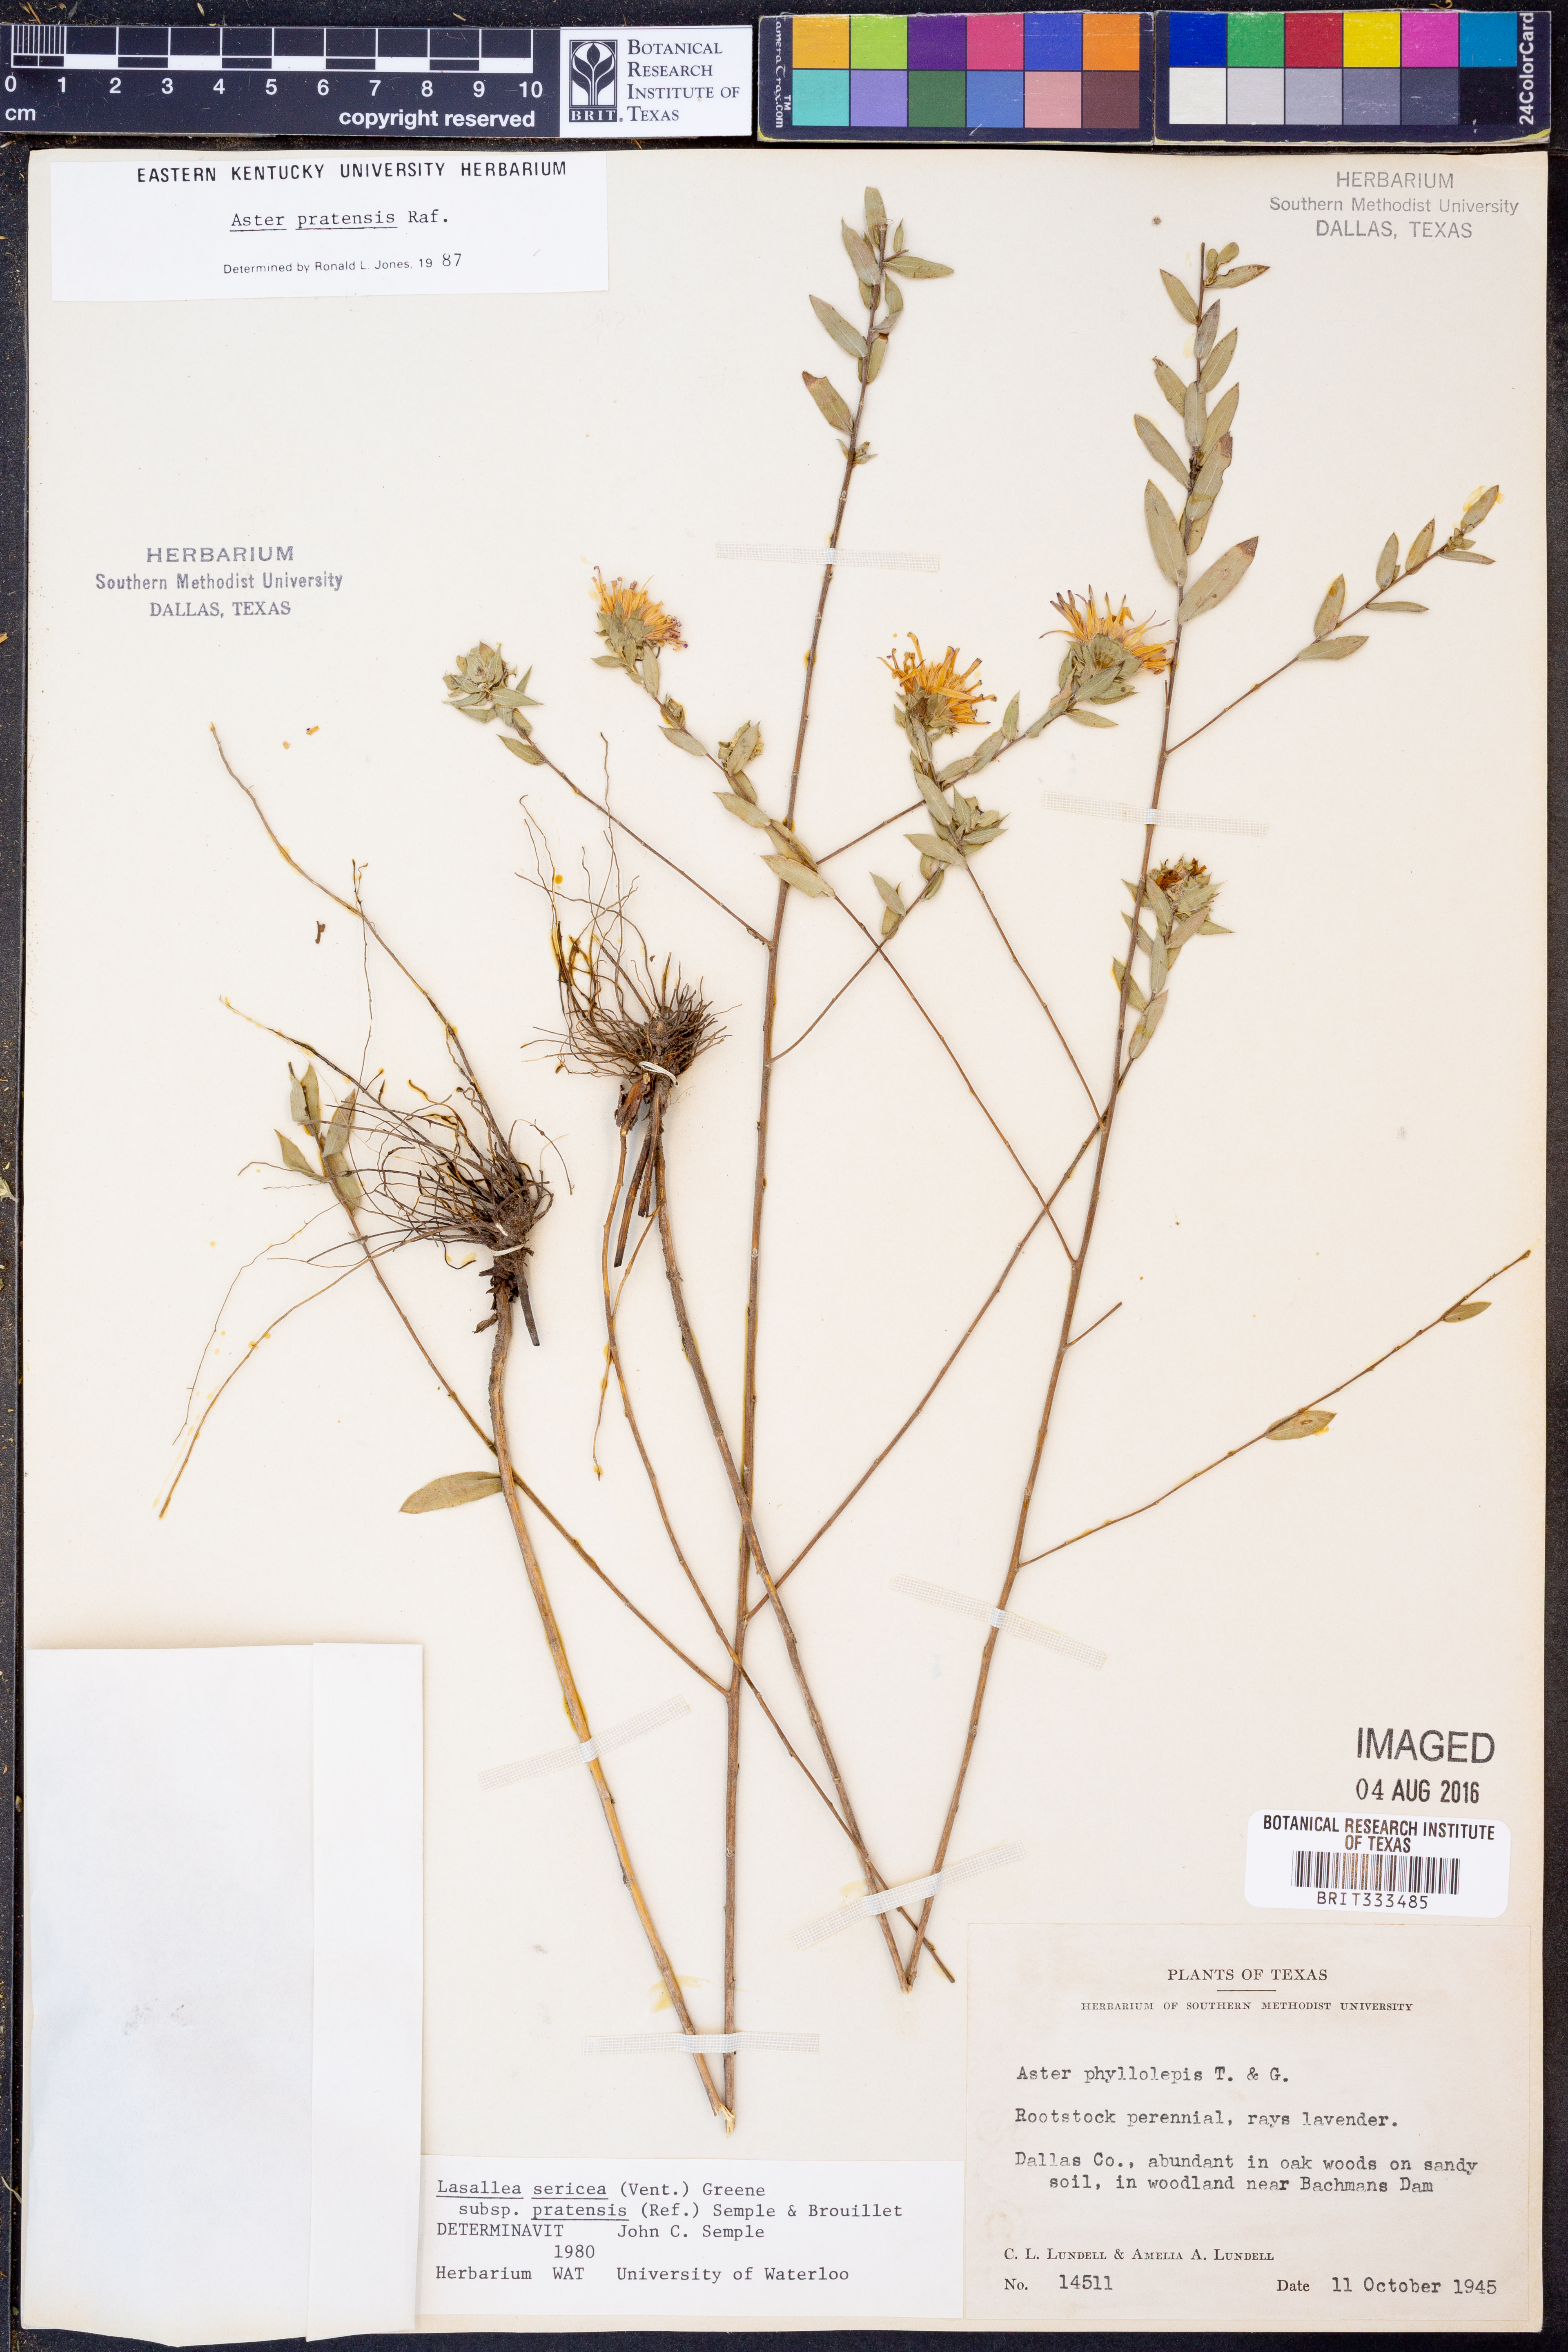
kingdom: Plantae
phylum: Tracheophyta
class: Magnoliopsida
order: Asterales
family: Asteraceae
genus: Symphyotrichum
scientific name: Symphyotrichum pratense
